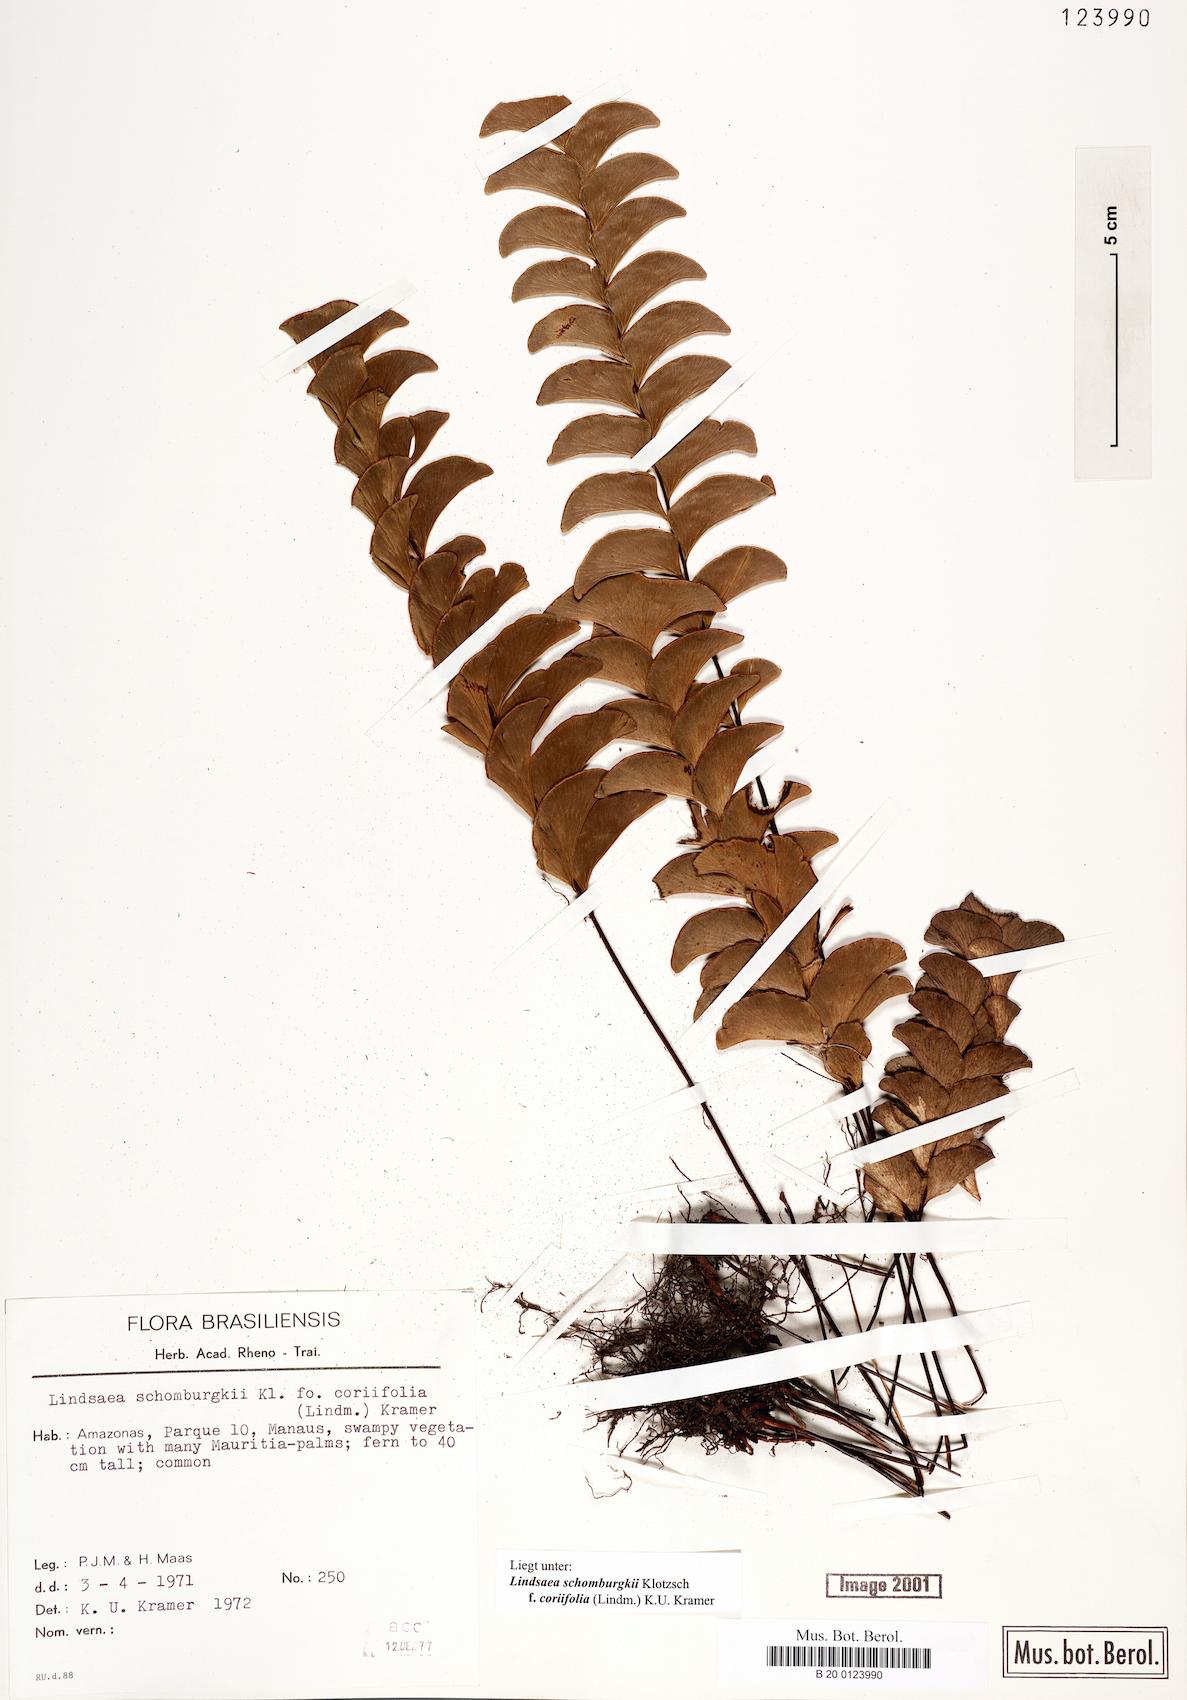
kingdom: Plantae
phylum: Tracheophyta
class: Polypodiopsida
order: Polypodiales
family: Lindsaeaceae
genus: Lindsaea
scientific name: Lindsaea schomburgkii
